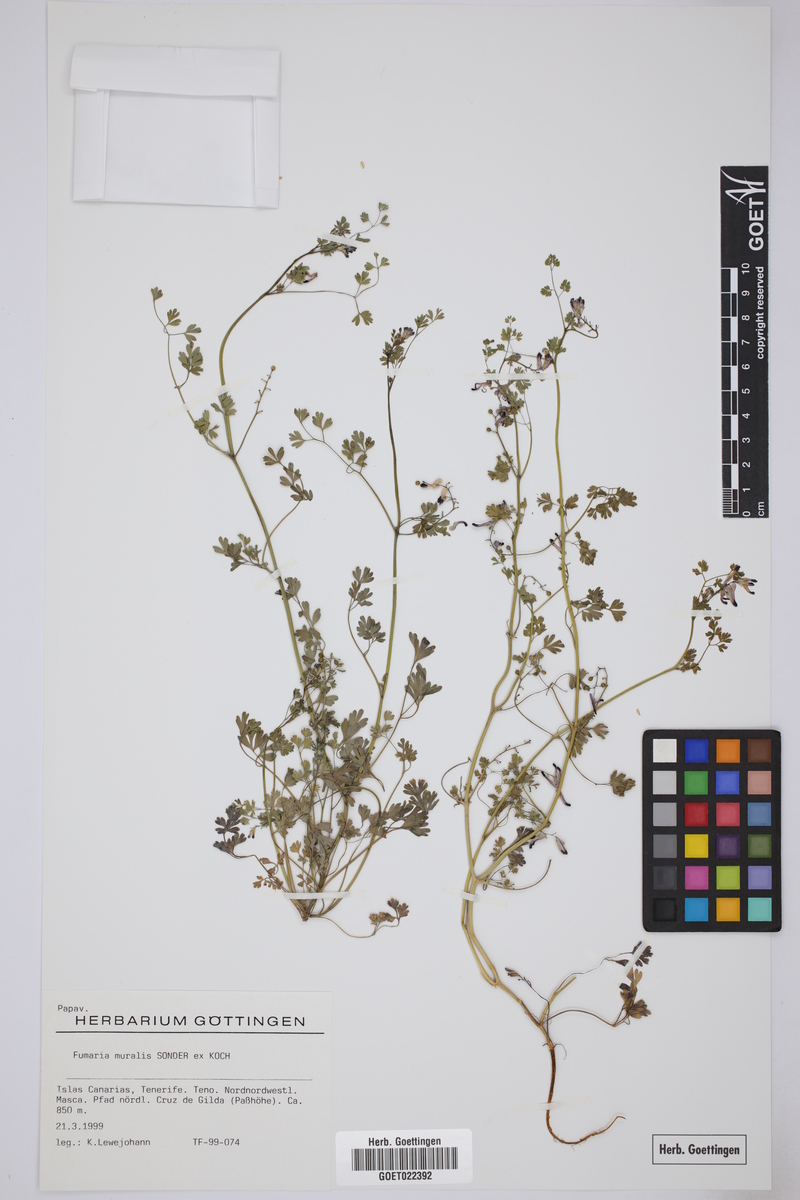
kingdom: Plantae
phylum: Tracheophyta
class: Magnoliopsida
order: Ranunculales
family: Papaveraceae
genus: Fumaria
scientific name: Fumaria muralis
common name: Common ramping-fumitory
